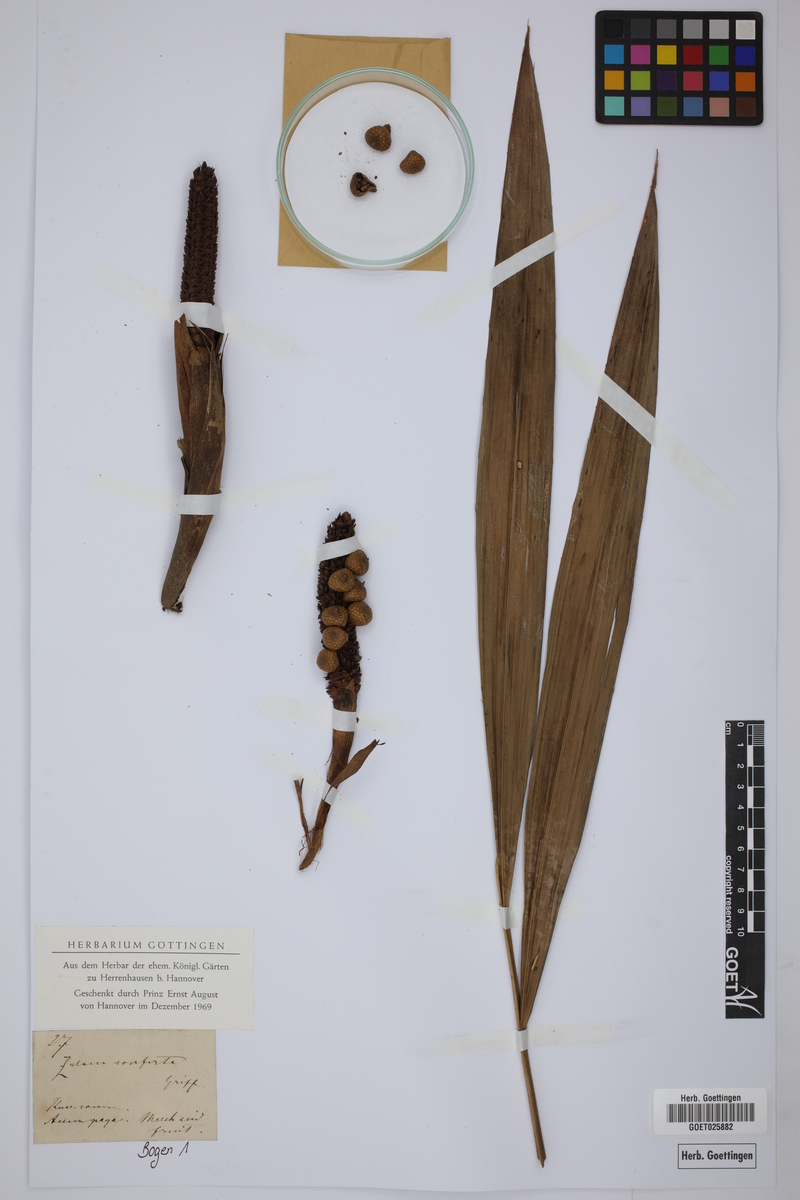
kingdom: Plantae
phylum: Tracheophyta
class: Liliopsida
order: Arecales
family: Arecaceae
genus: Eleiodoxa
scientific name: Eleiodoxa conferta
